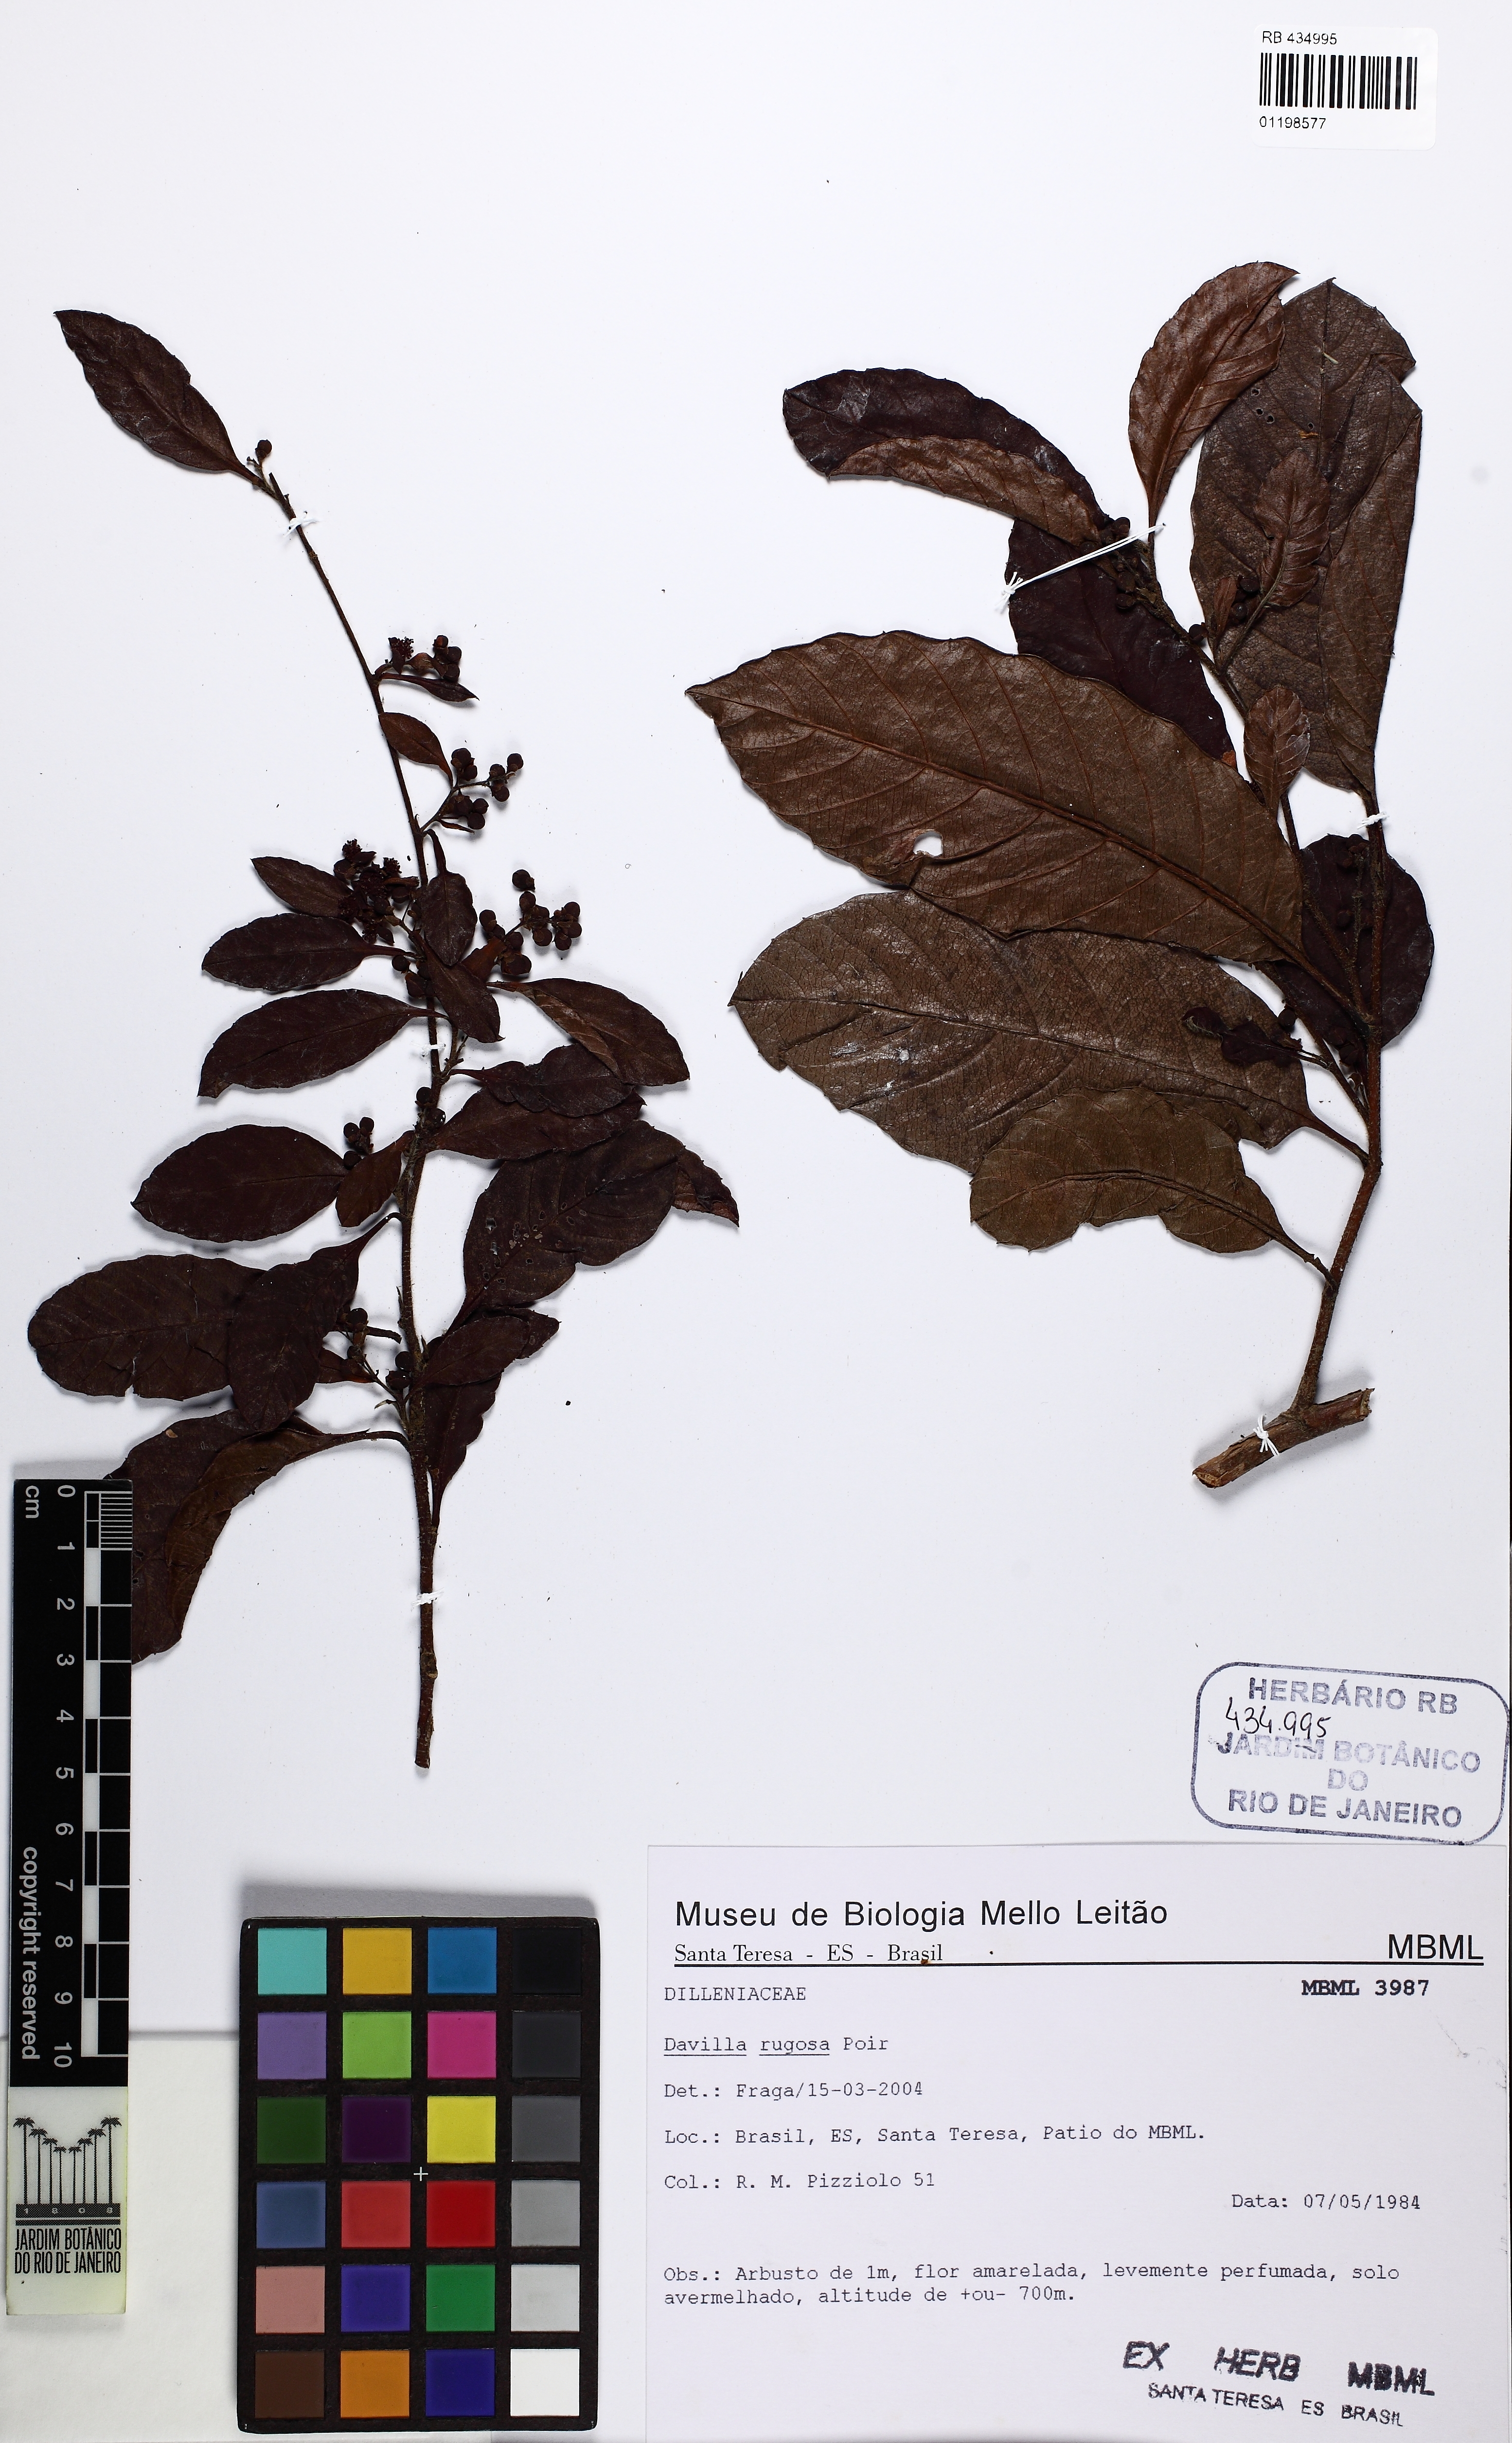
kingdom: Plantae
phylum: Tracheophyta
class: Magnoliopsida
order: Dilleniales
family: Dilleniaceae
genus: Davilla
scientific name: Davilla rugosa
